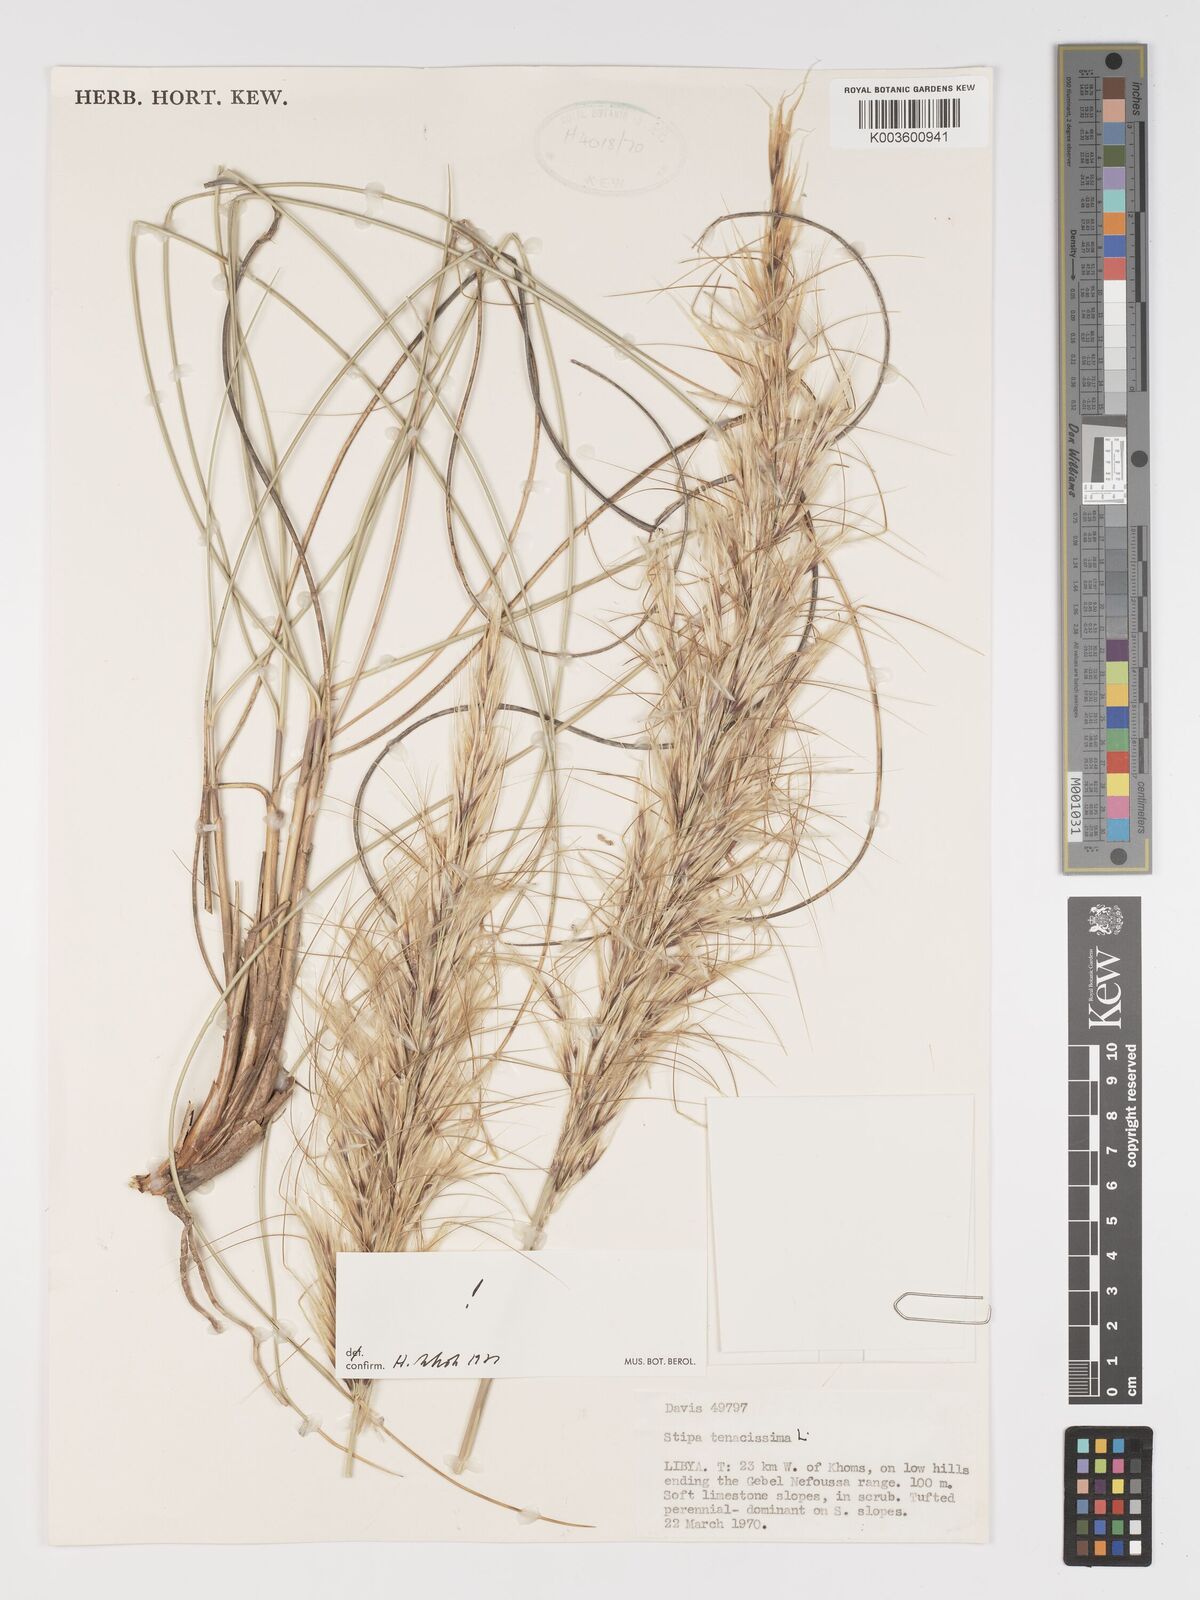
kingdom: Plantae
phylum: Tracheophyta
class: Liliopsida
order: Poales
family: Poaceae
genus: Macrochloa
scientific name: Macrochloa tenacissima
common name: Alfa grass
